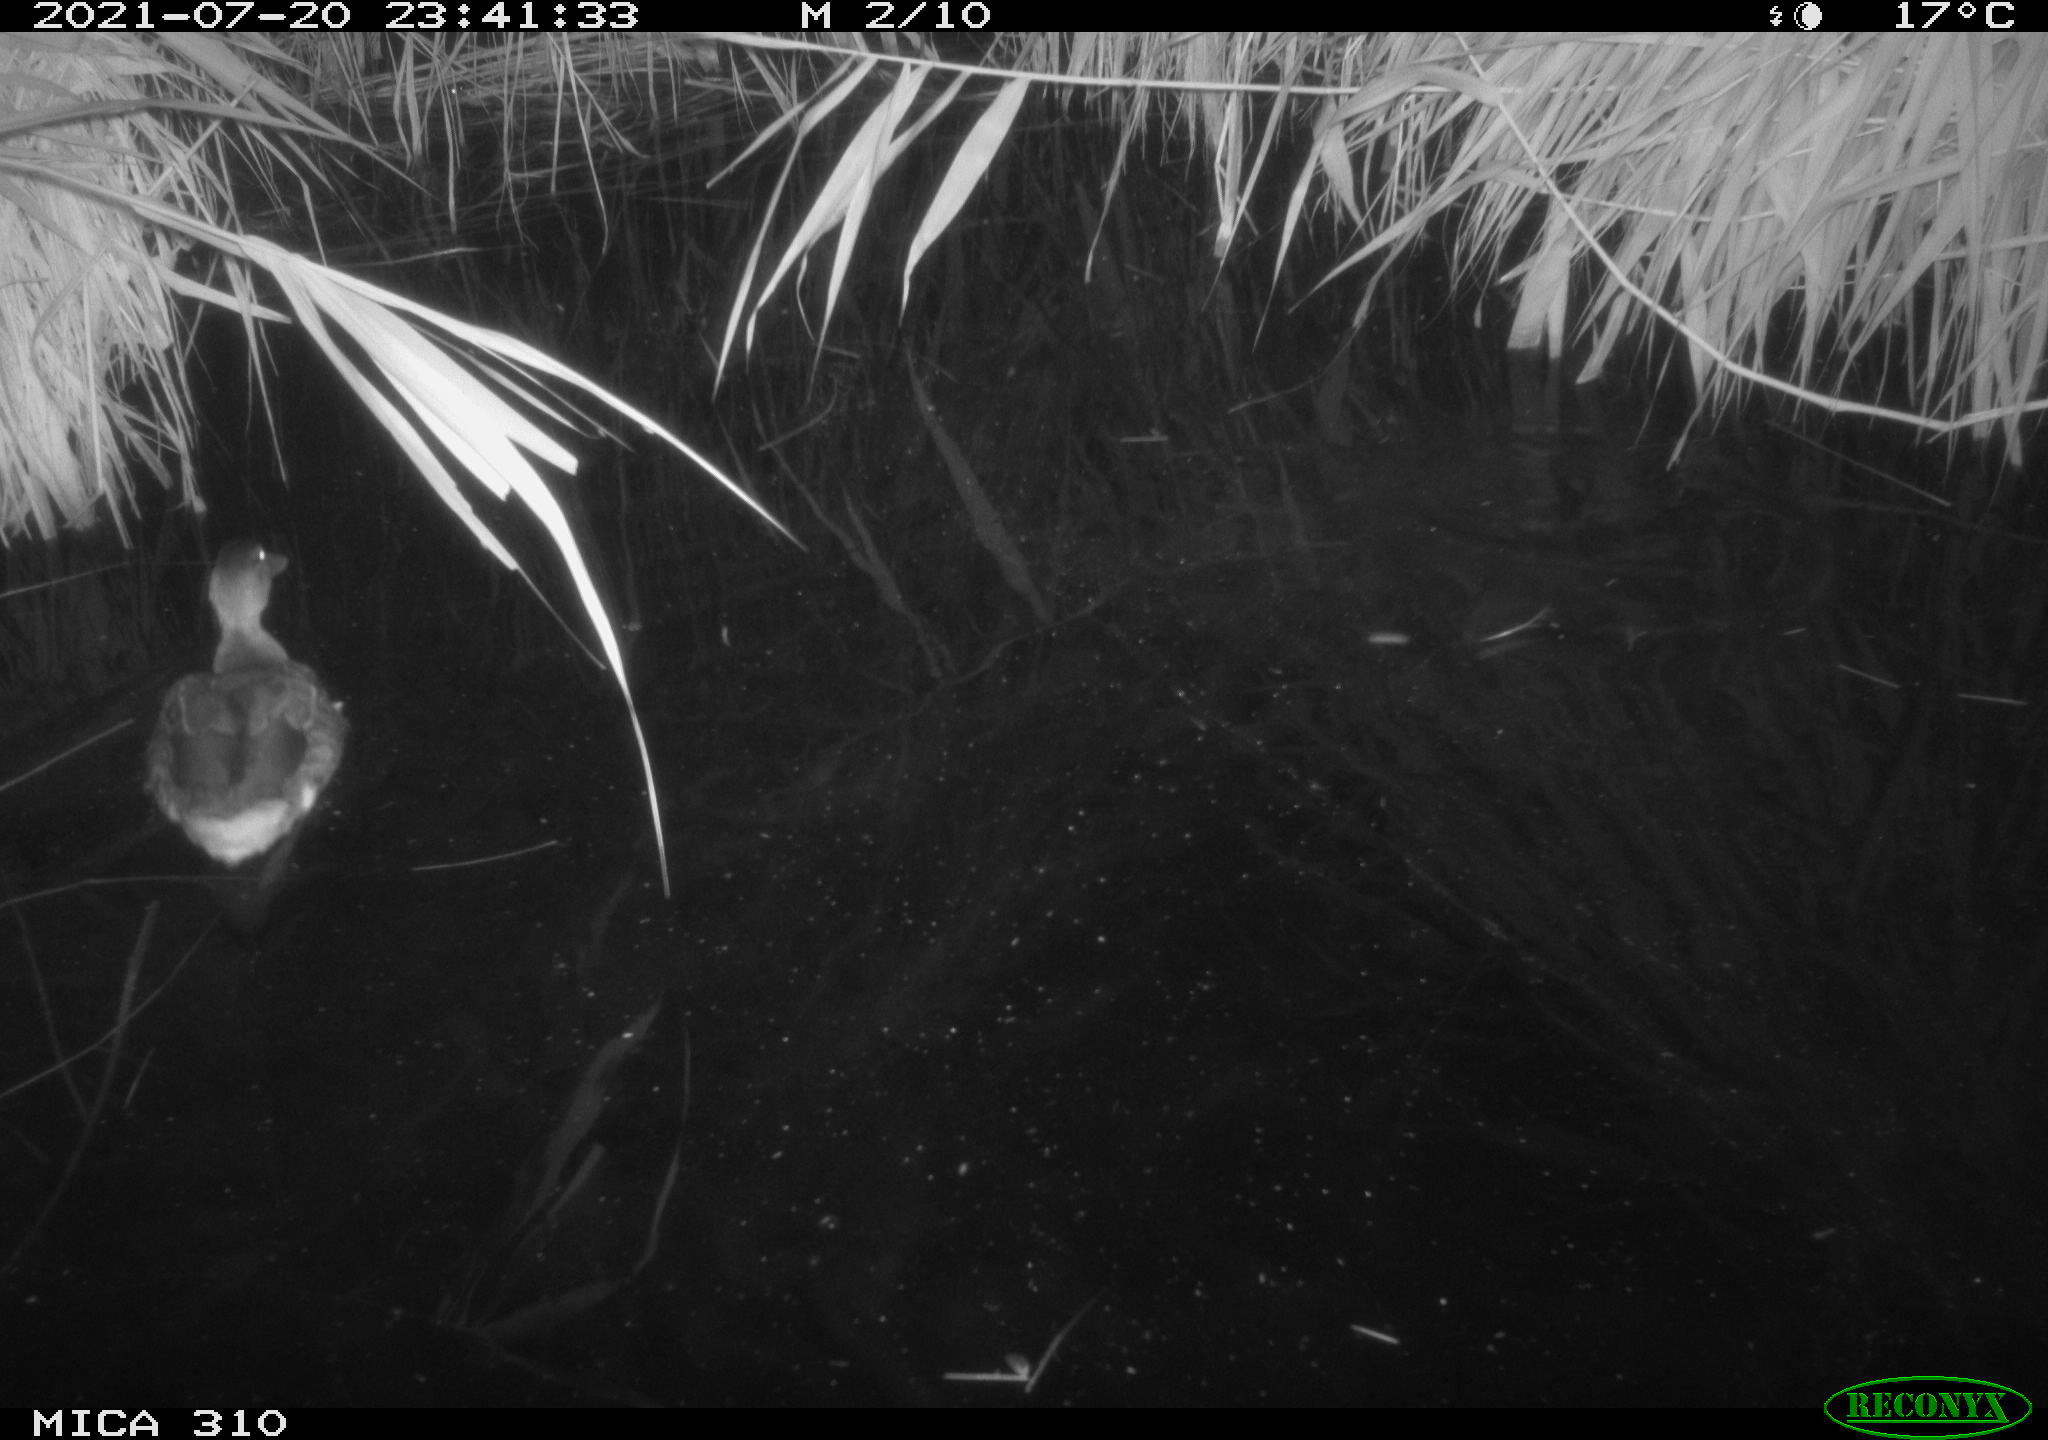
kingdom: Animalia
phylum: Chordata
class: Aves
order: Anseriformes
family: Anatidae
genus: Anas
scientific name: Anas platyrhynchos
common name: Mallard
